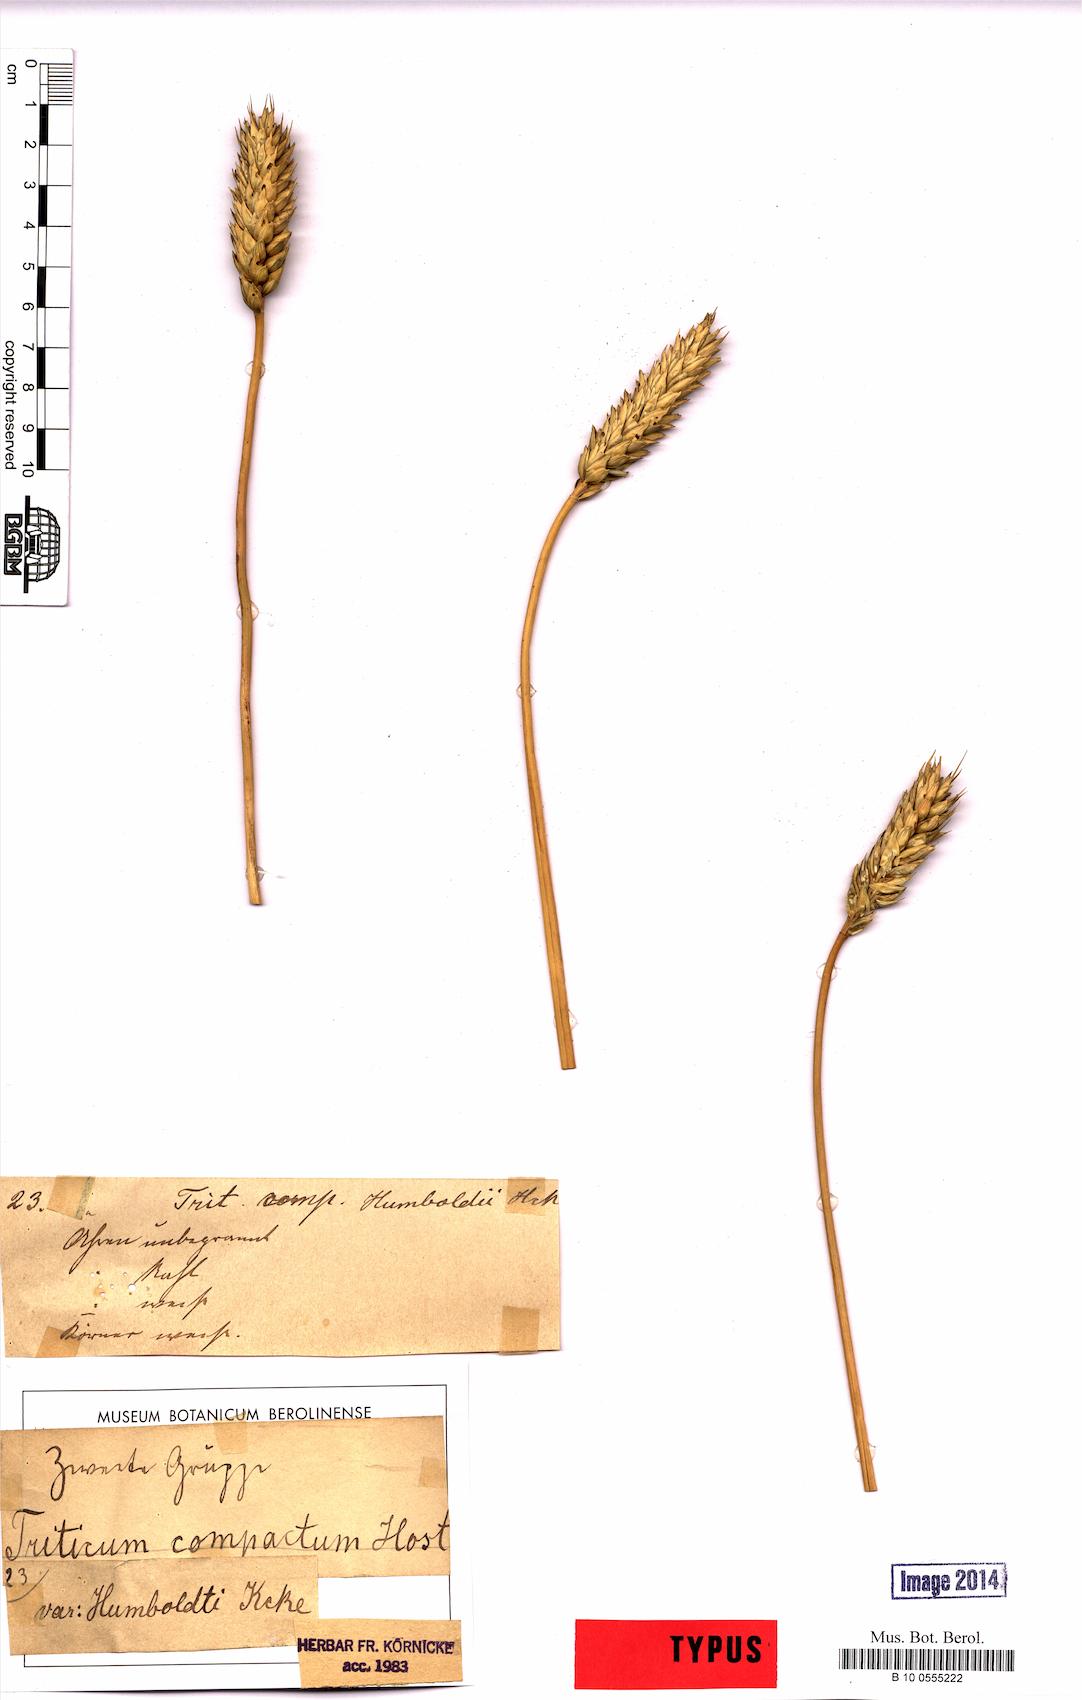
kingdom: Plantae
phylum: Tracheophyta
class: Liliopsida
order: Poales
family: Poaceae
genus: Triticum
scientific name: Triticum aestivum
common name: Common wheat
